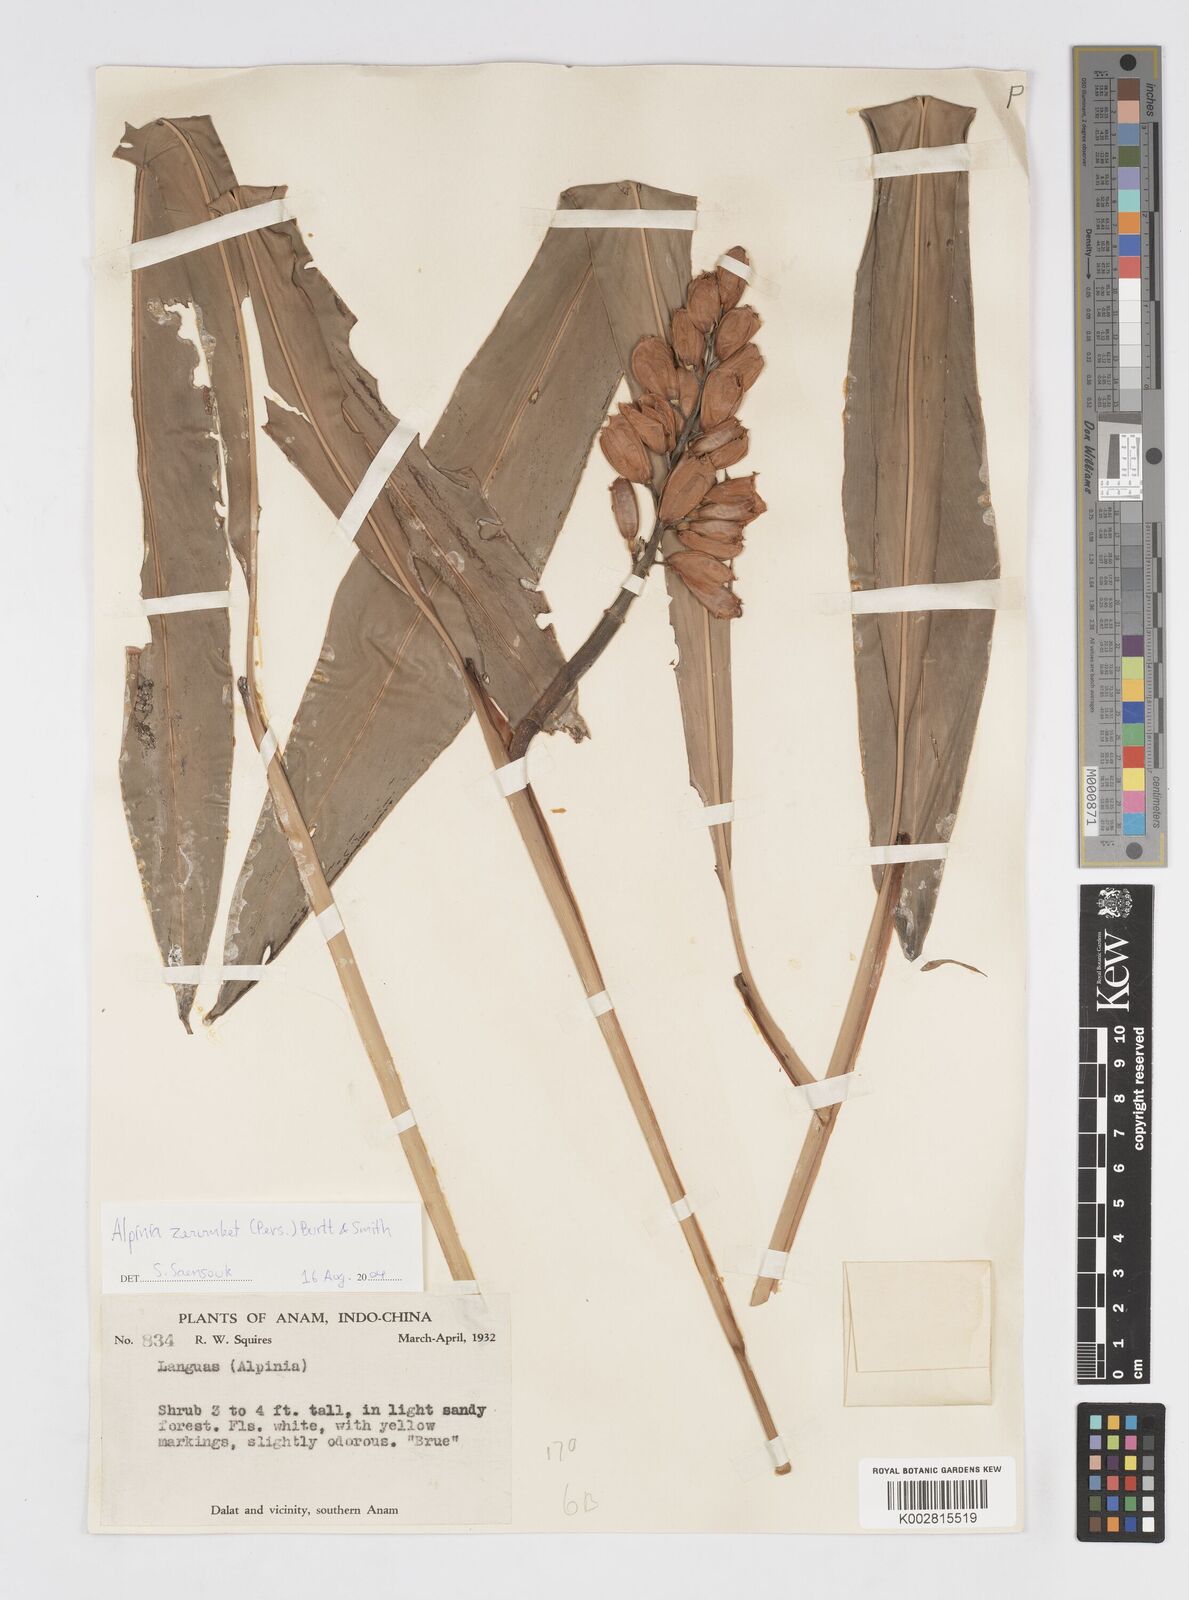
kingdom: Plantae
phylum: Tracheophyta
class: Liliopsida
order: Zingiberales
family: Zingiberaceae
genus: Alpinia
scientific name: Alpinia zerumbet
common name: Shellplant
